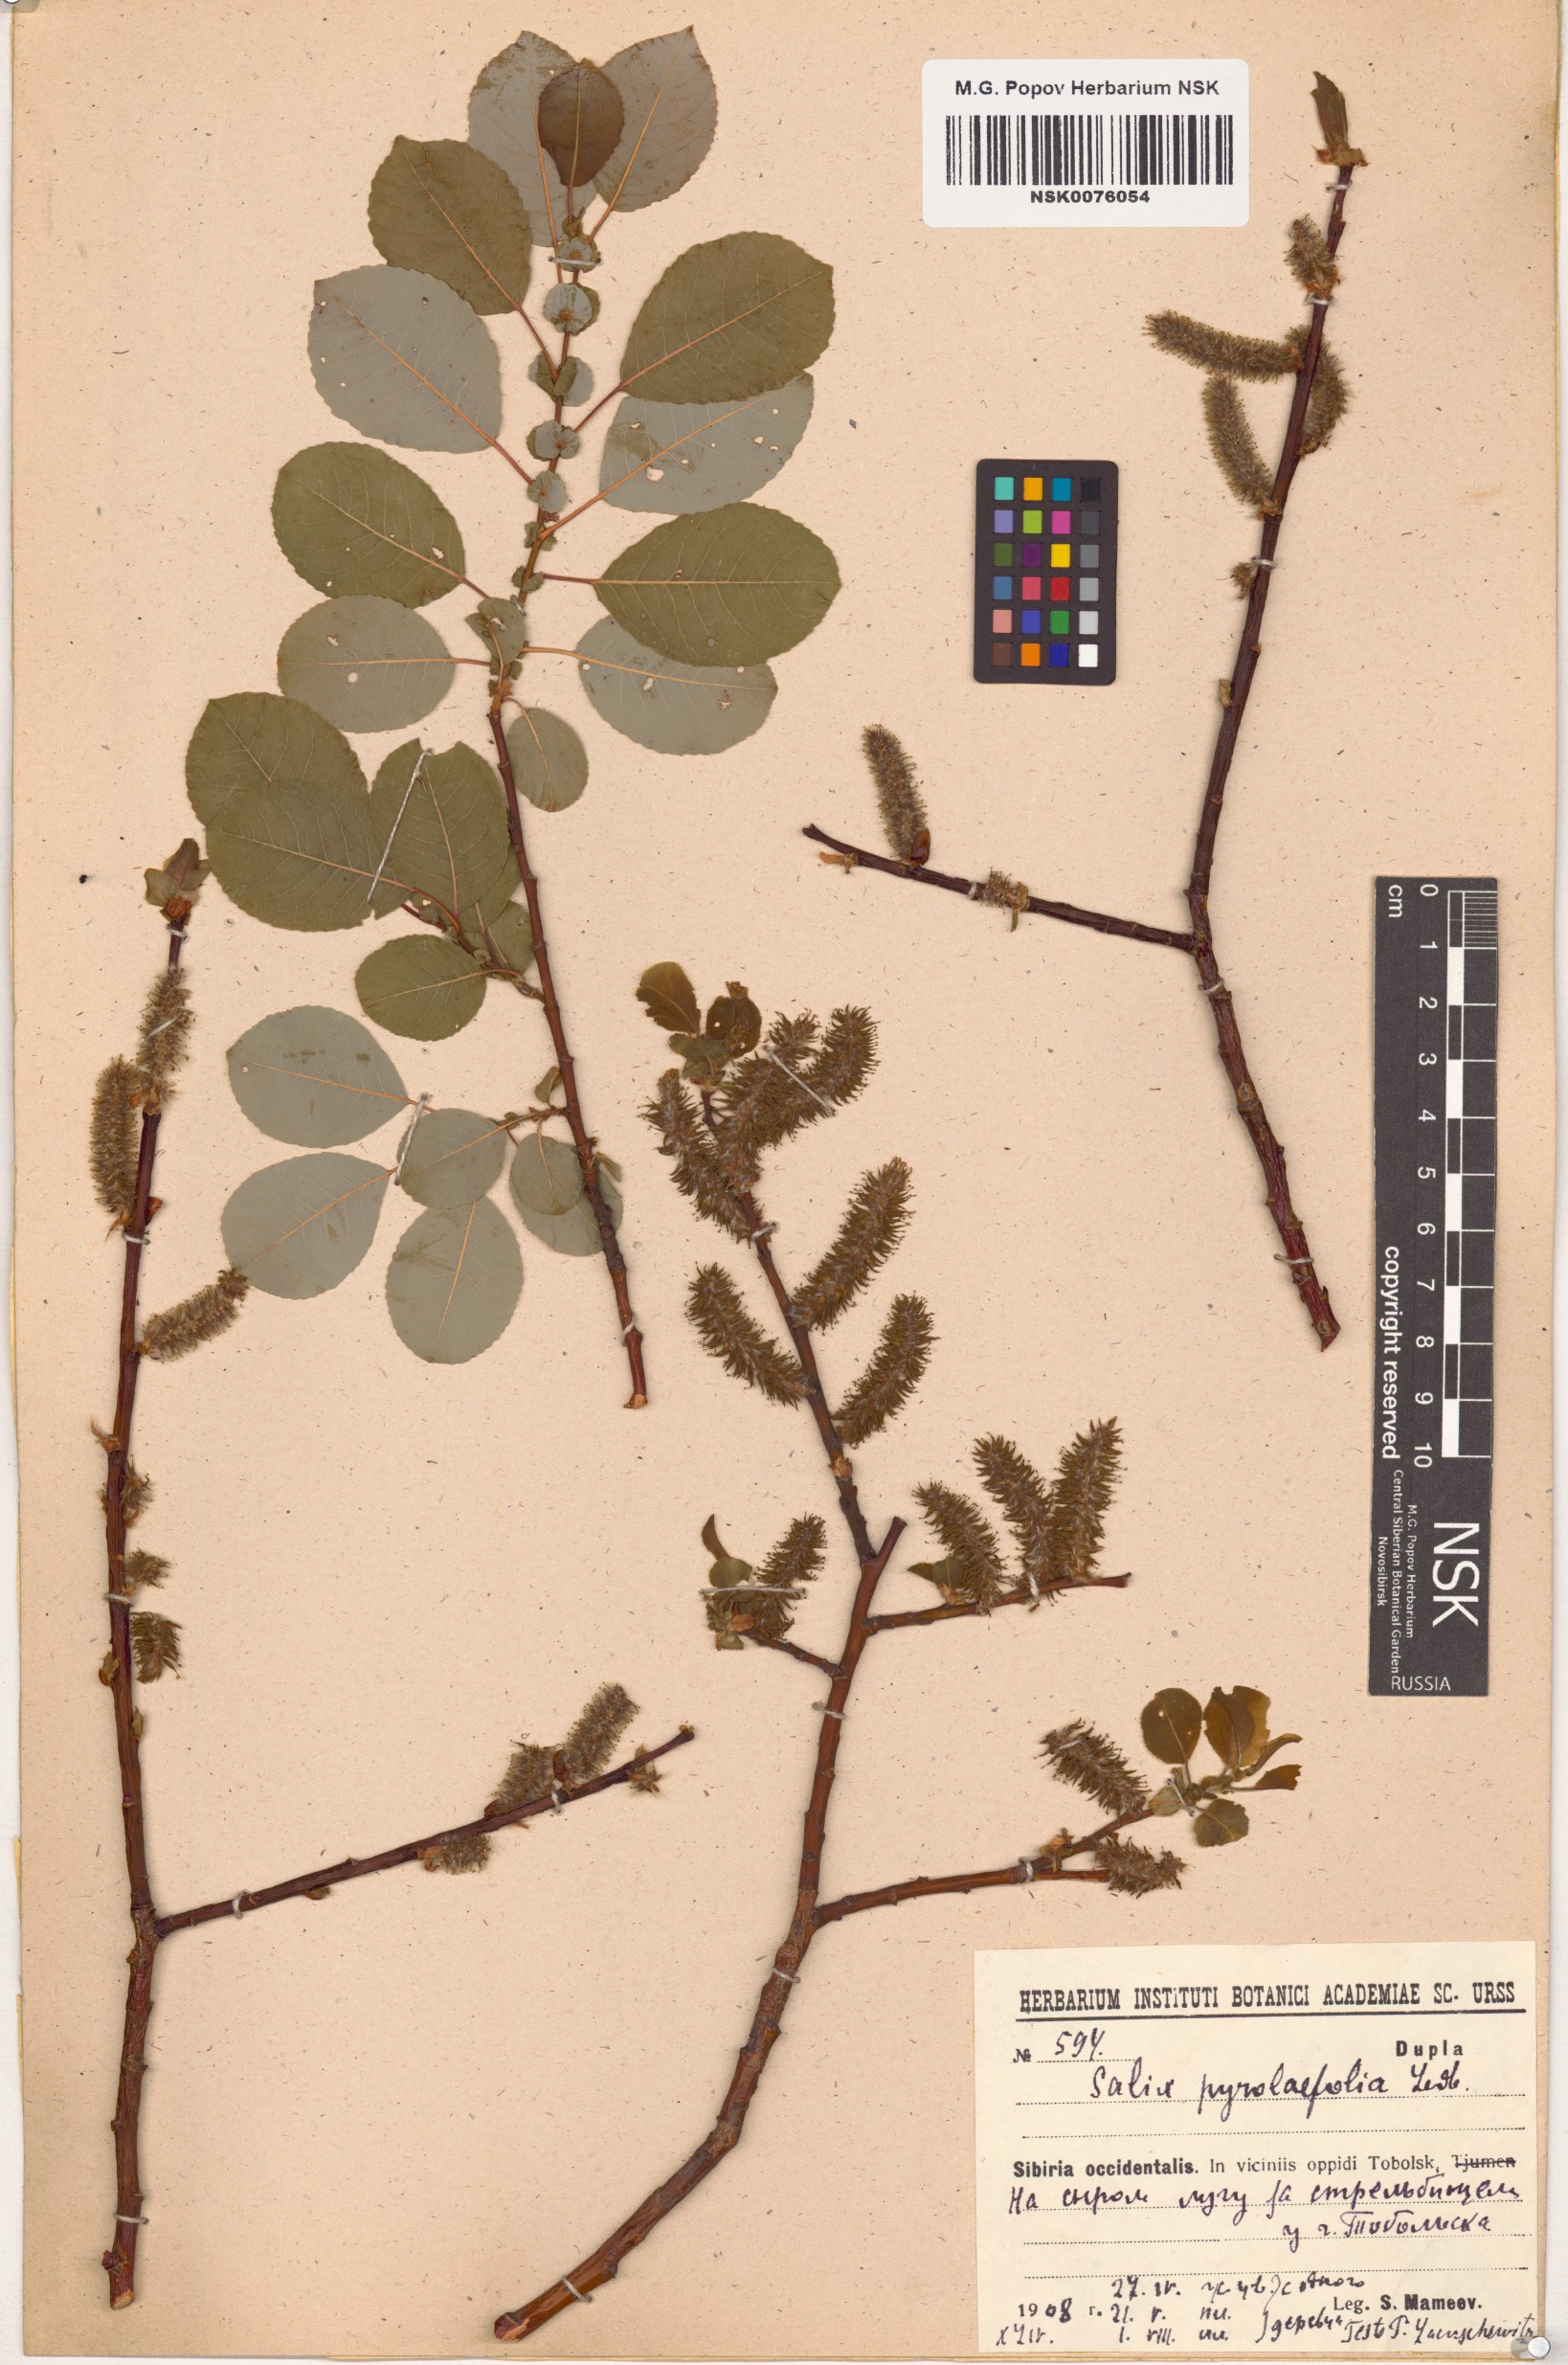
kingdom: Plantae
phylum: Tracheophyta
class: Magnoliopsida
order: Malpighiales
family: Salicaceae
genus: Salix
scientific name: Salix pyrolifolia
